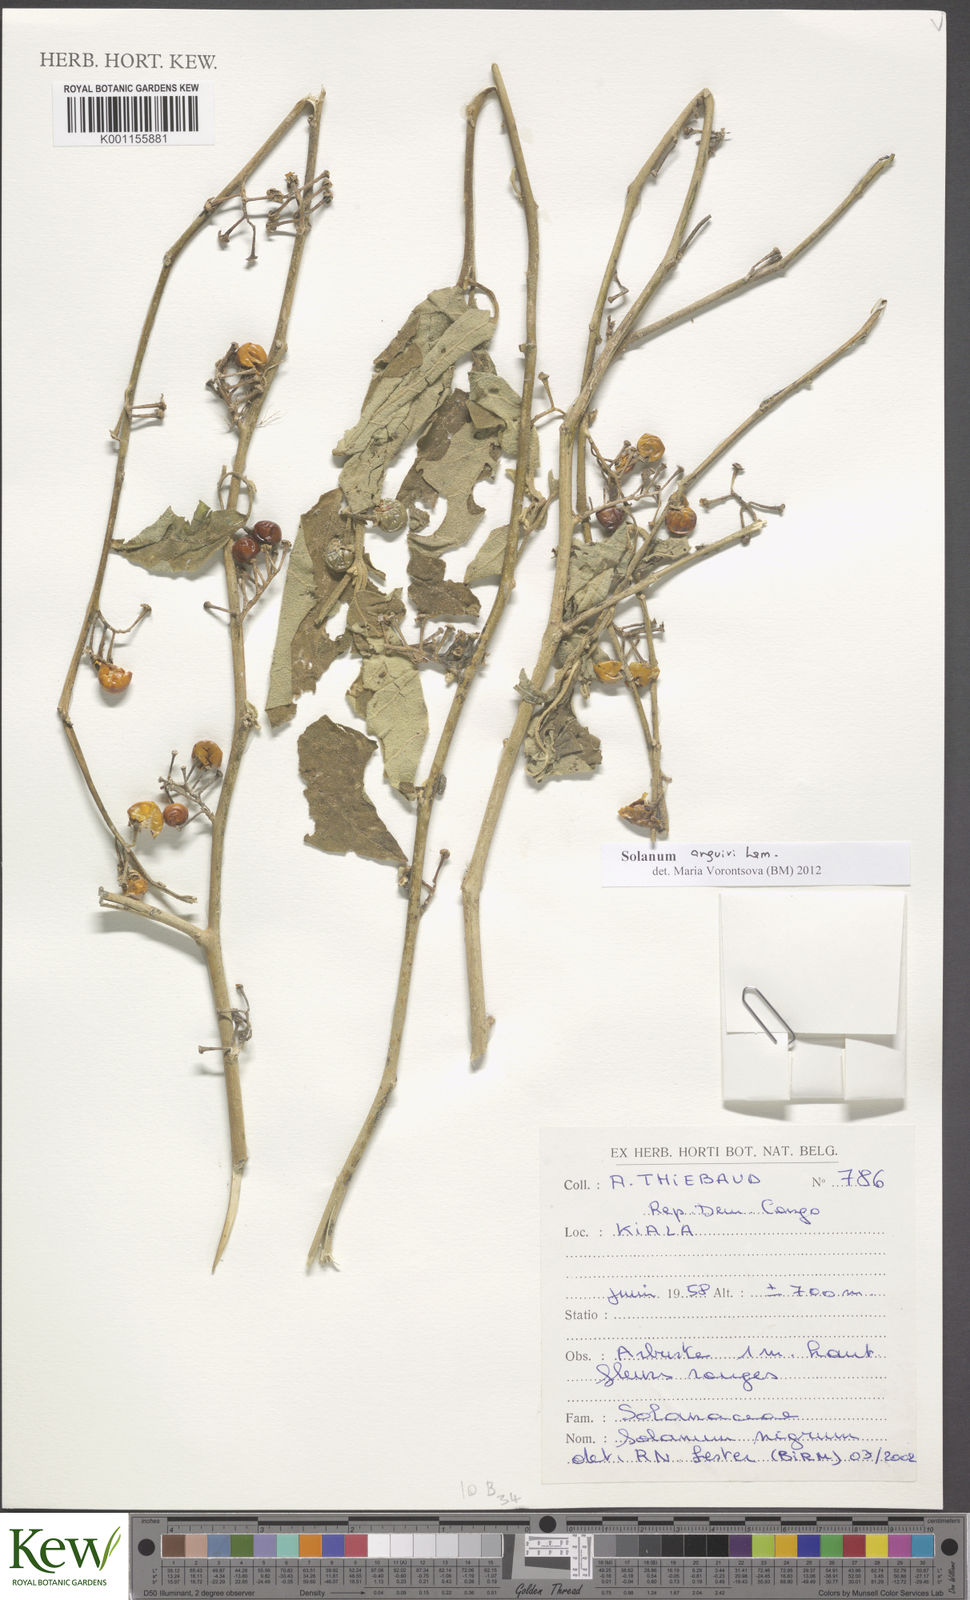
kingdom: Plantae
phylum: Tracheophyta
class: Magnoliopsida
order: Solanales
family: Solanaceae
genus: Solanum
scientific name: Solanum anguivi
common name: Forest bitterberry
